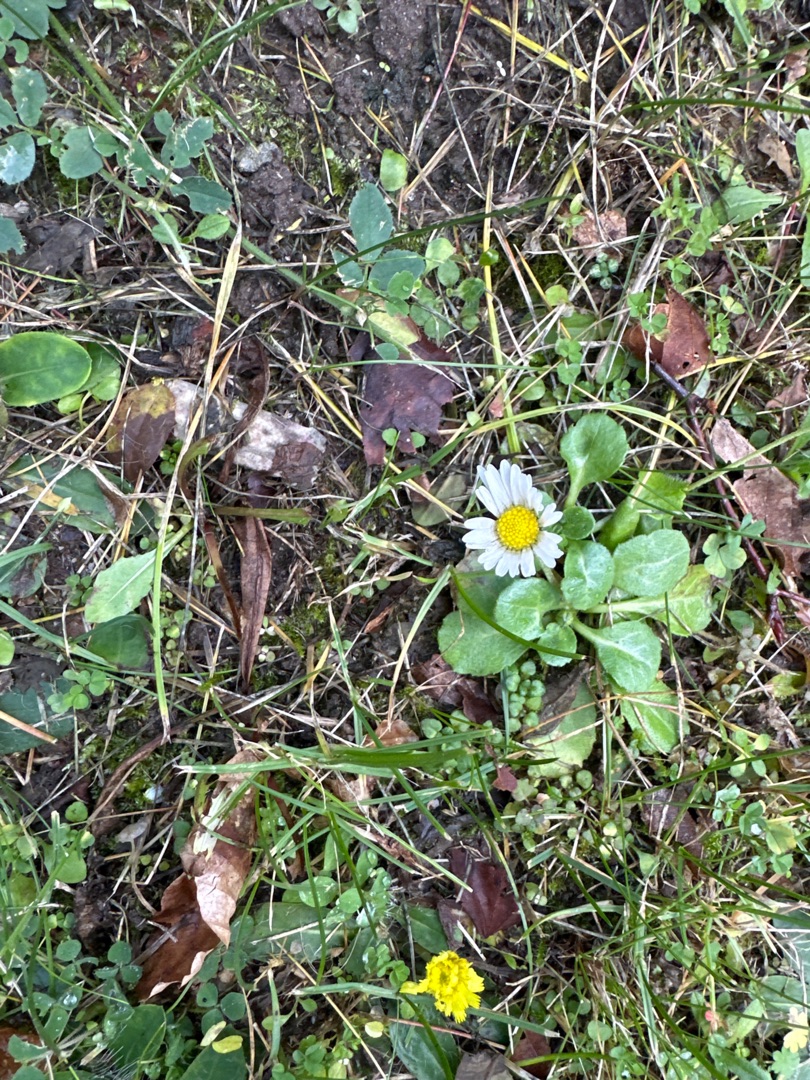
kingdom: Plantae
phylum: Tracheophyta
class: Magnoliopsida
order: Asterales
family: Asteraceae
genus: Bellis
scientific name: Bellis perennis
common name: Tusindfryd
